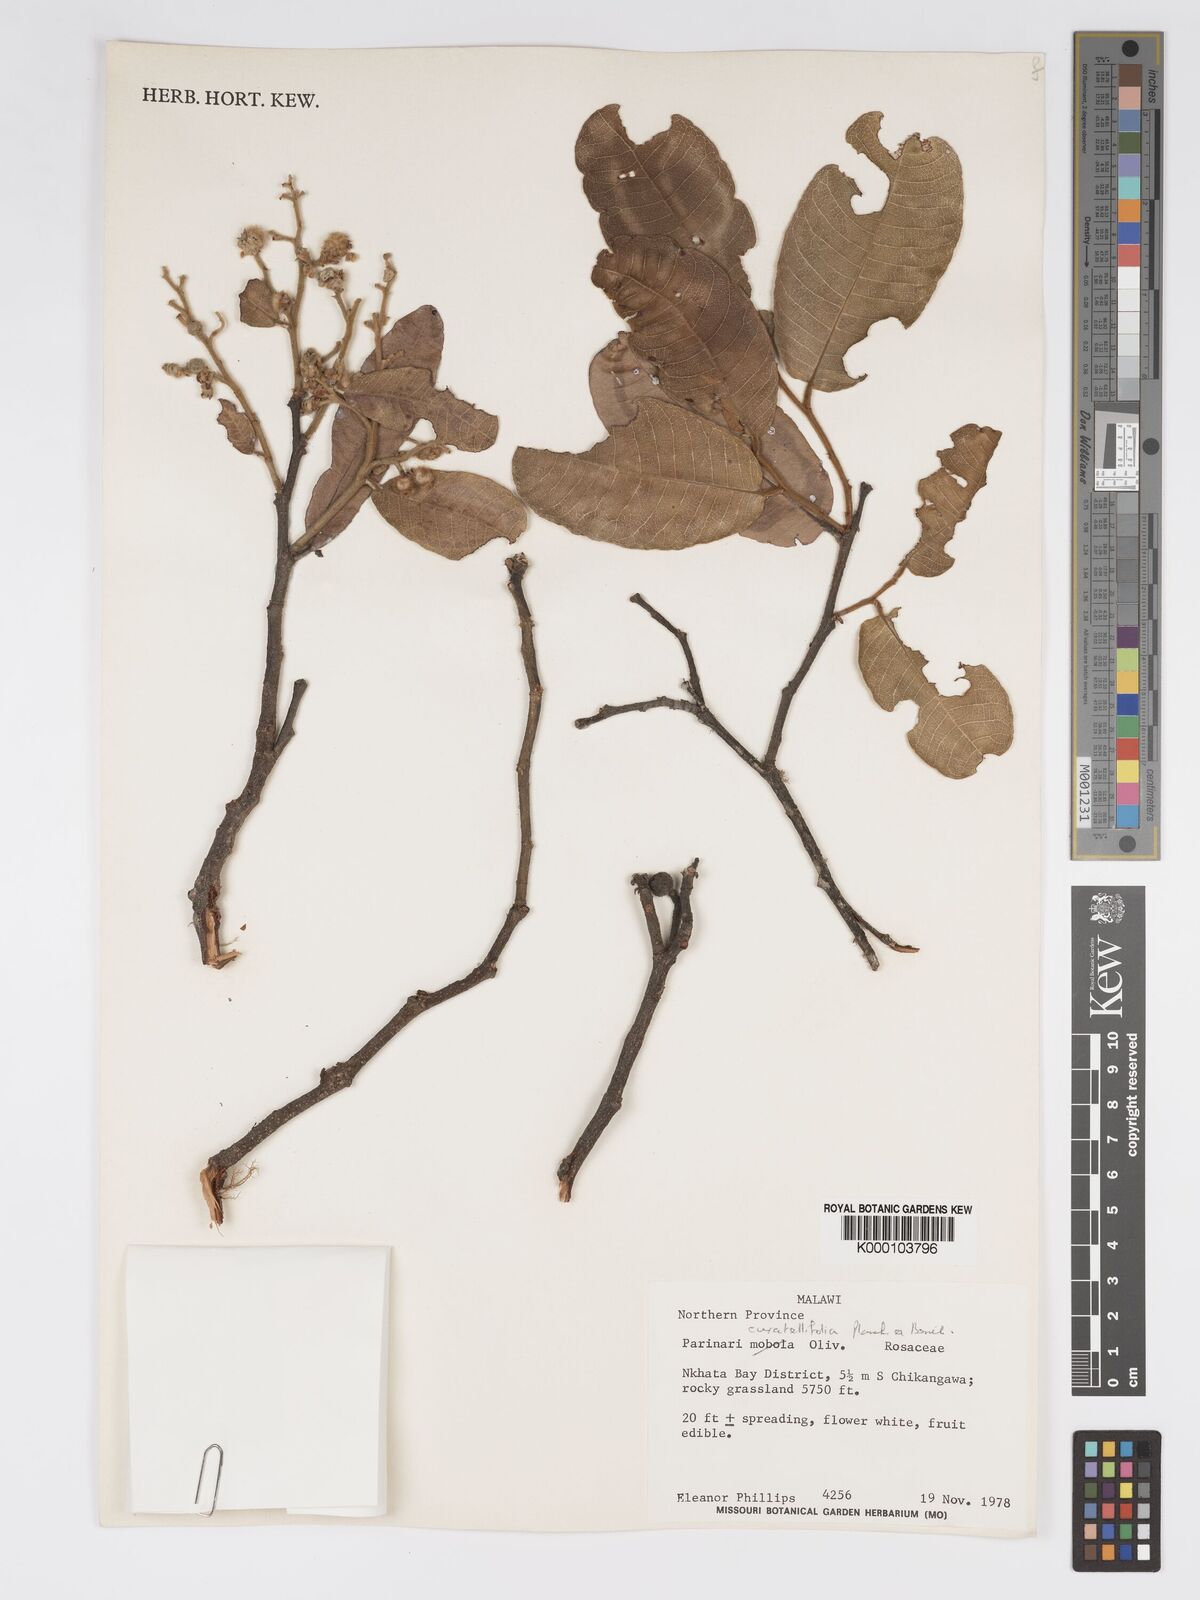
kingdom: Plantae
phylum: Tracheophyta
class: Magnoliopsida
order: Malpighiales
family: Chrysobalanaceae
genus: Parinari
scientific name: Parinari curatellifolia
